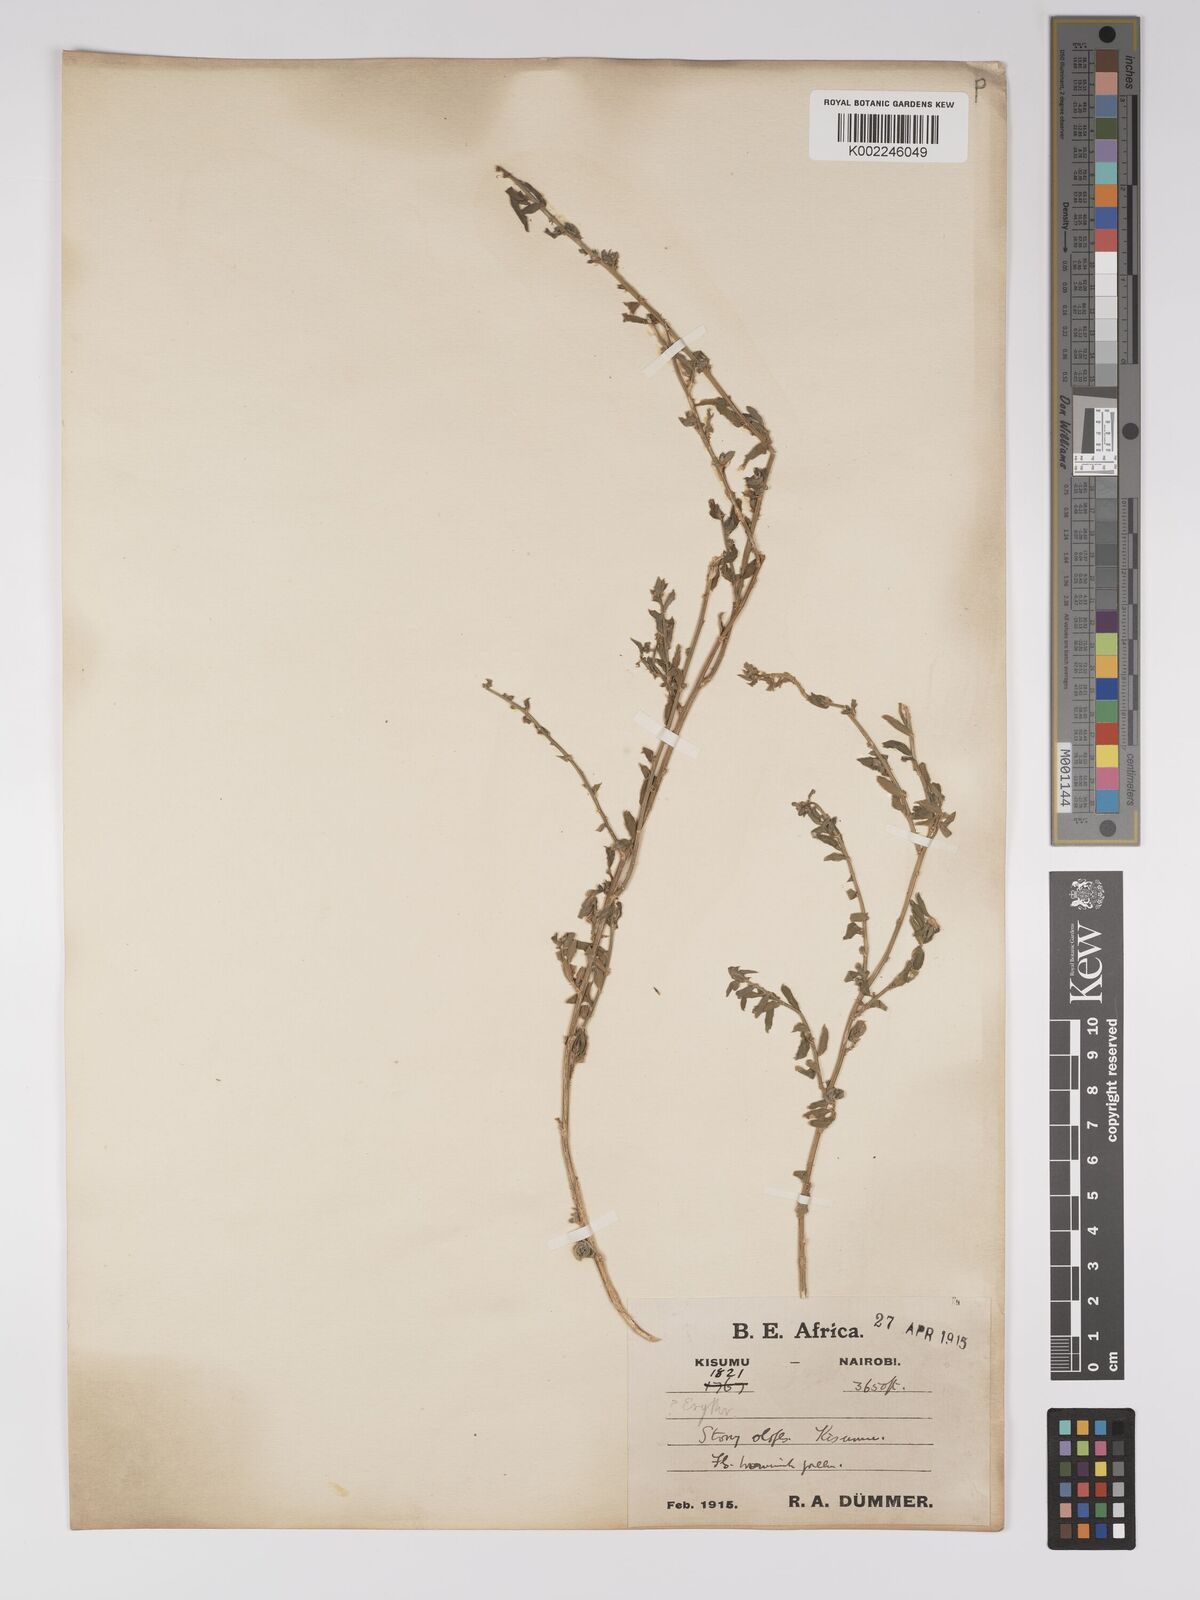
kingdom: Plantae
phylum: Tracheophyta
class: Magnoliopsida
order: Malpighiales
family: Euphorbiaceae
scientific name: Euphorbiaceae
